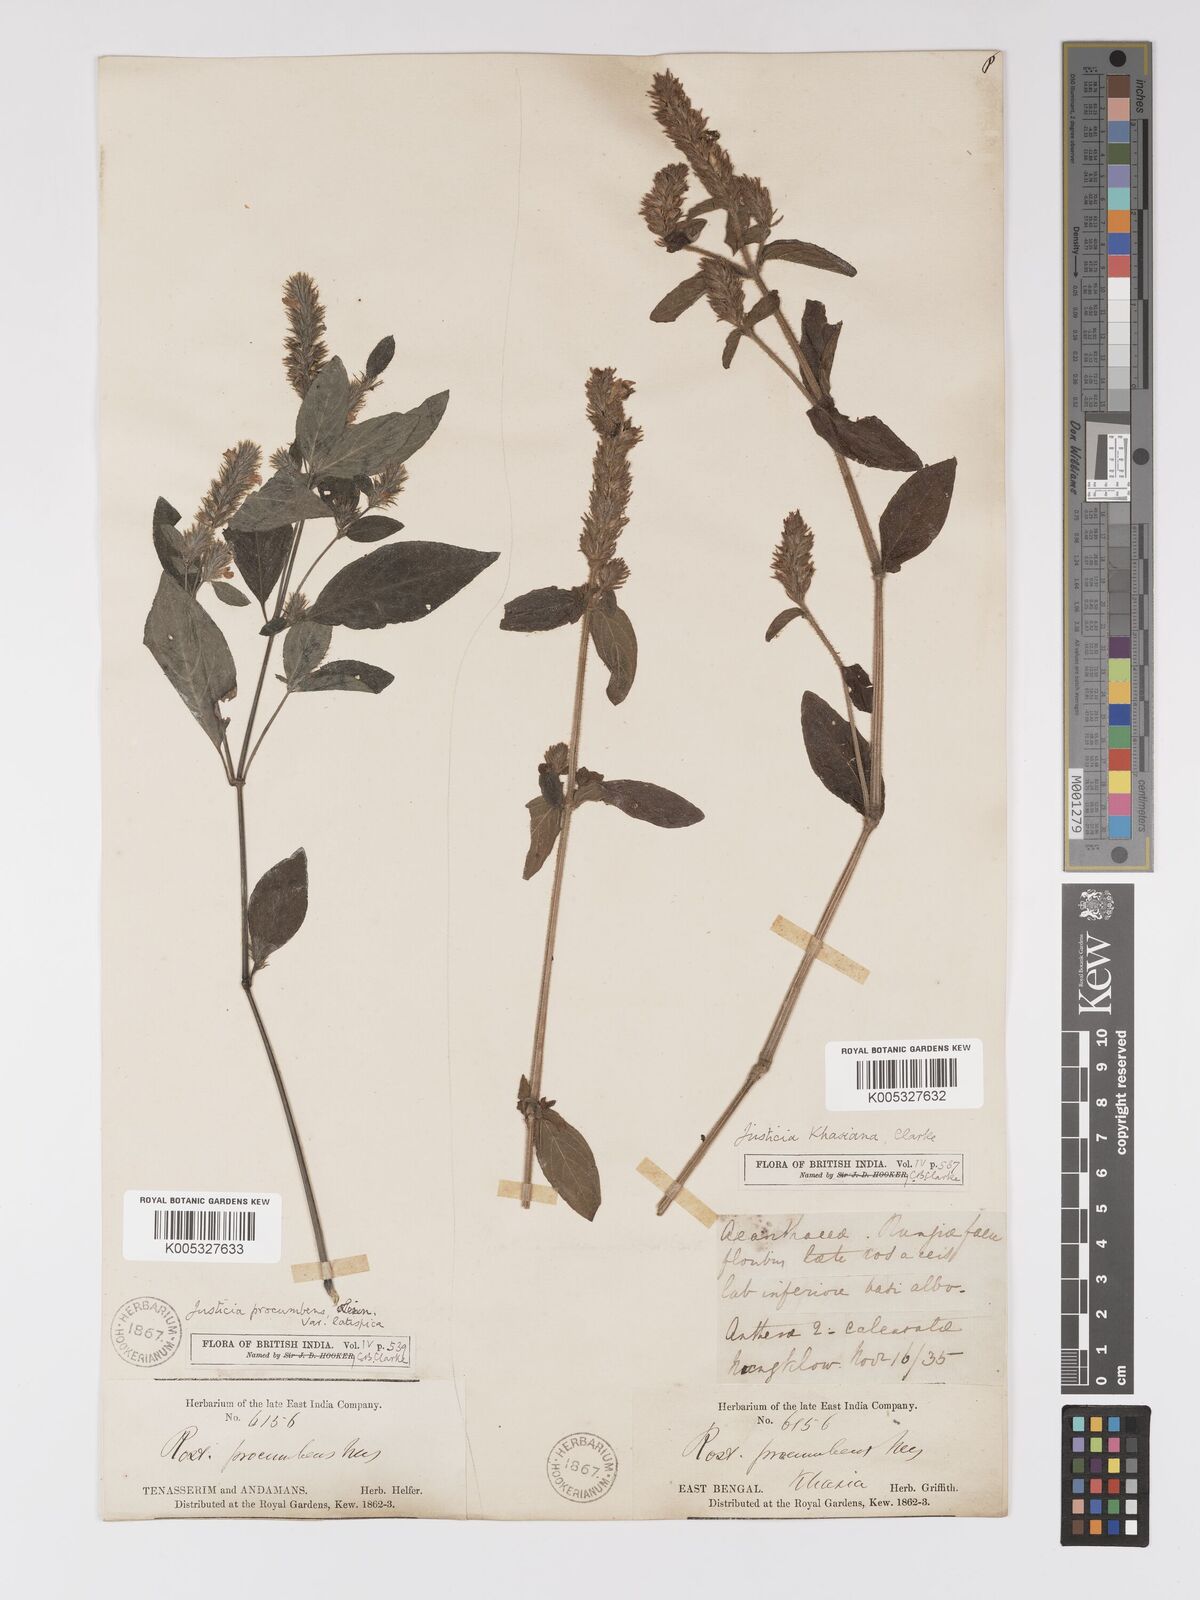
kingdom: Plantae
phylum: Tracheophyta
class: Magnoliopsida
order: Lamiales
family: Acanthaceae
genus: Rostellularia
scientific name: Rostellularia latispica
